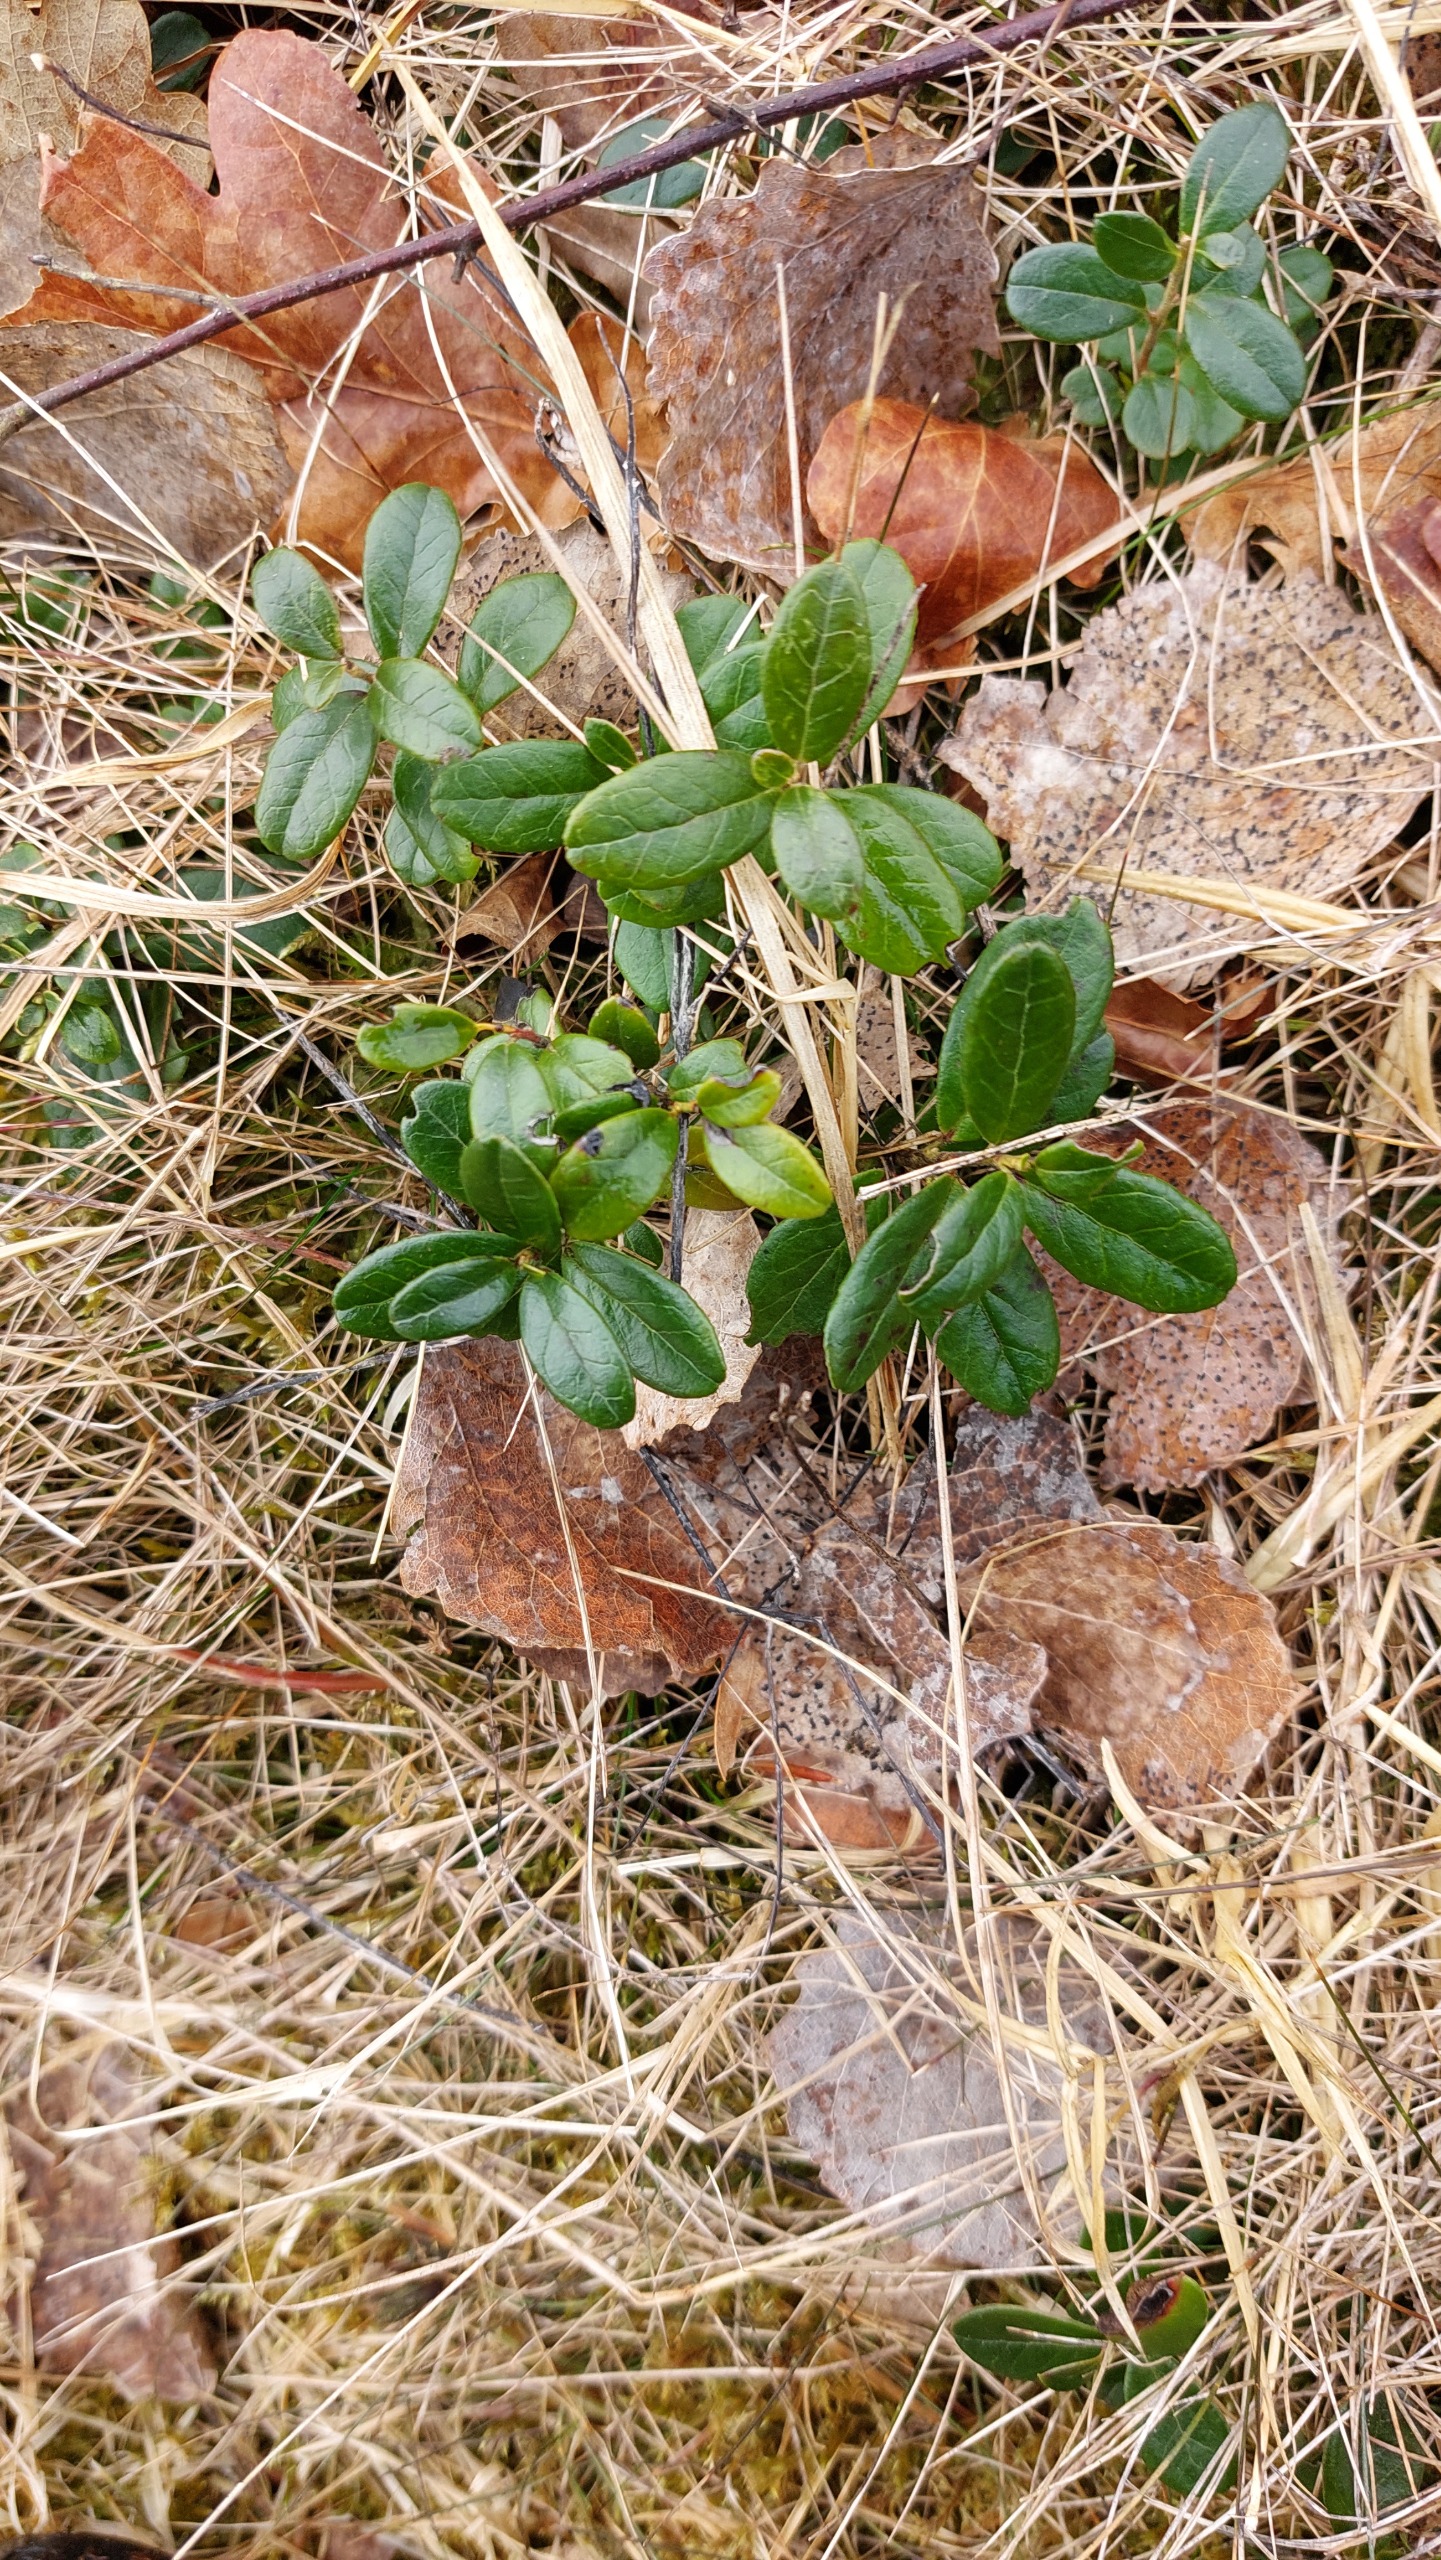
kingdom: Plantae
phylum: Tracheophyta
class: Magnoliopsida
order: Ericales
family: Ericaceae
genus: Vaccinium
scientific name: Vaccinium vitis-idaea
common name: Tyttebær
